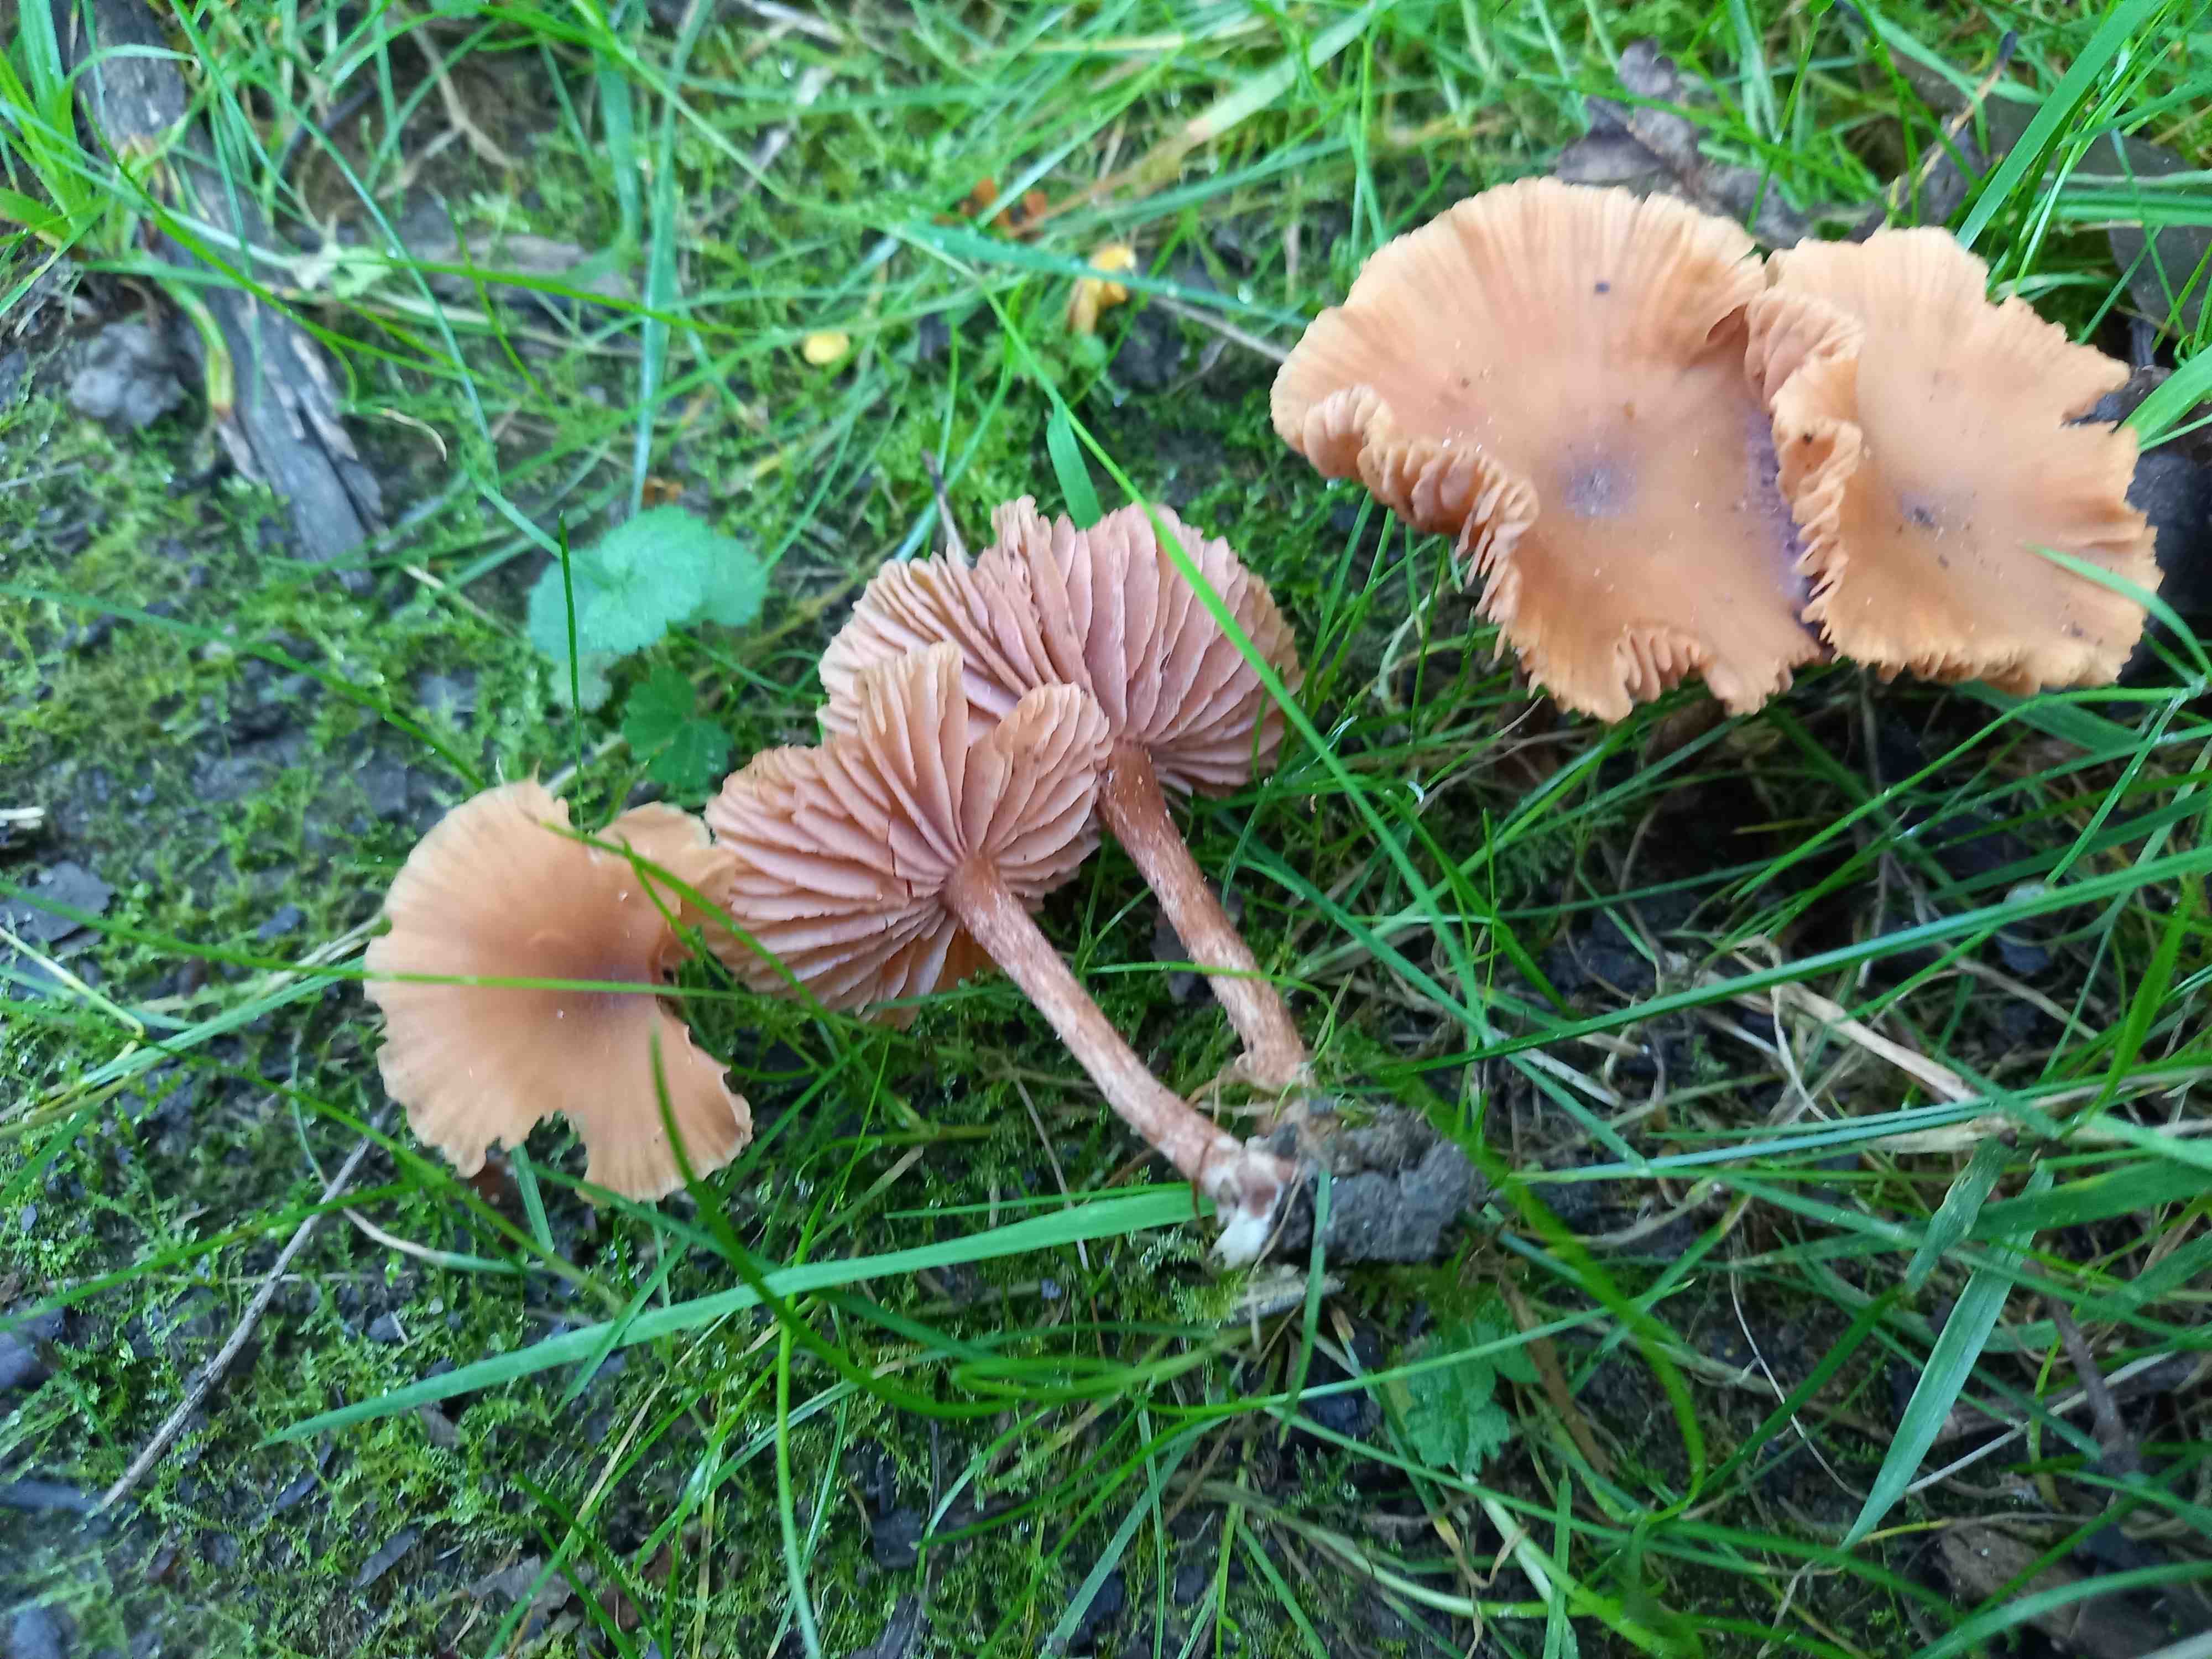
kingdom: Fungi
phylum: Basidiomycota
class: Agaricomycetes
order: Agaricales
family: Hydnangiaceae
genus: Laccaria
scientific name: Laccaria laccata
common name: rød ametysthat
